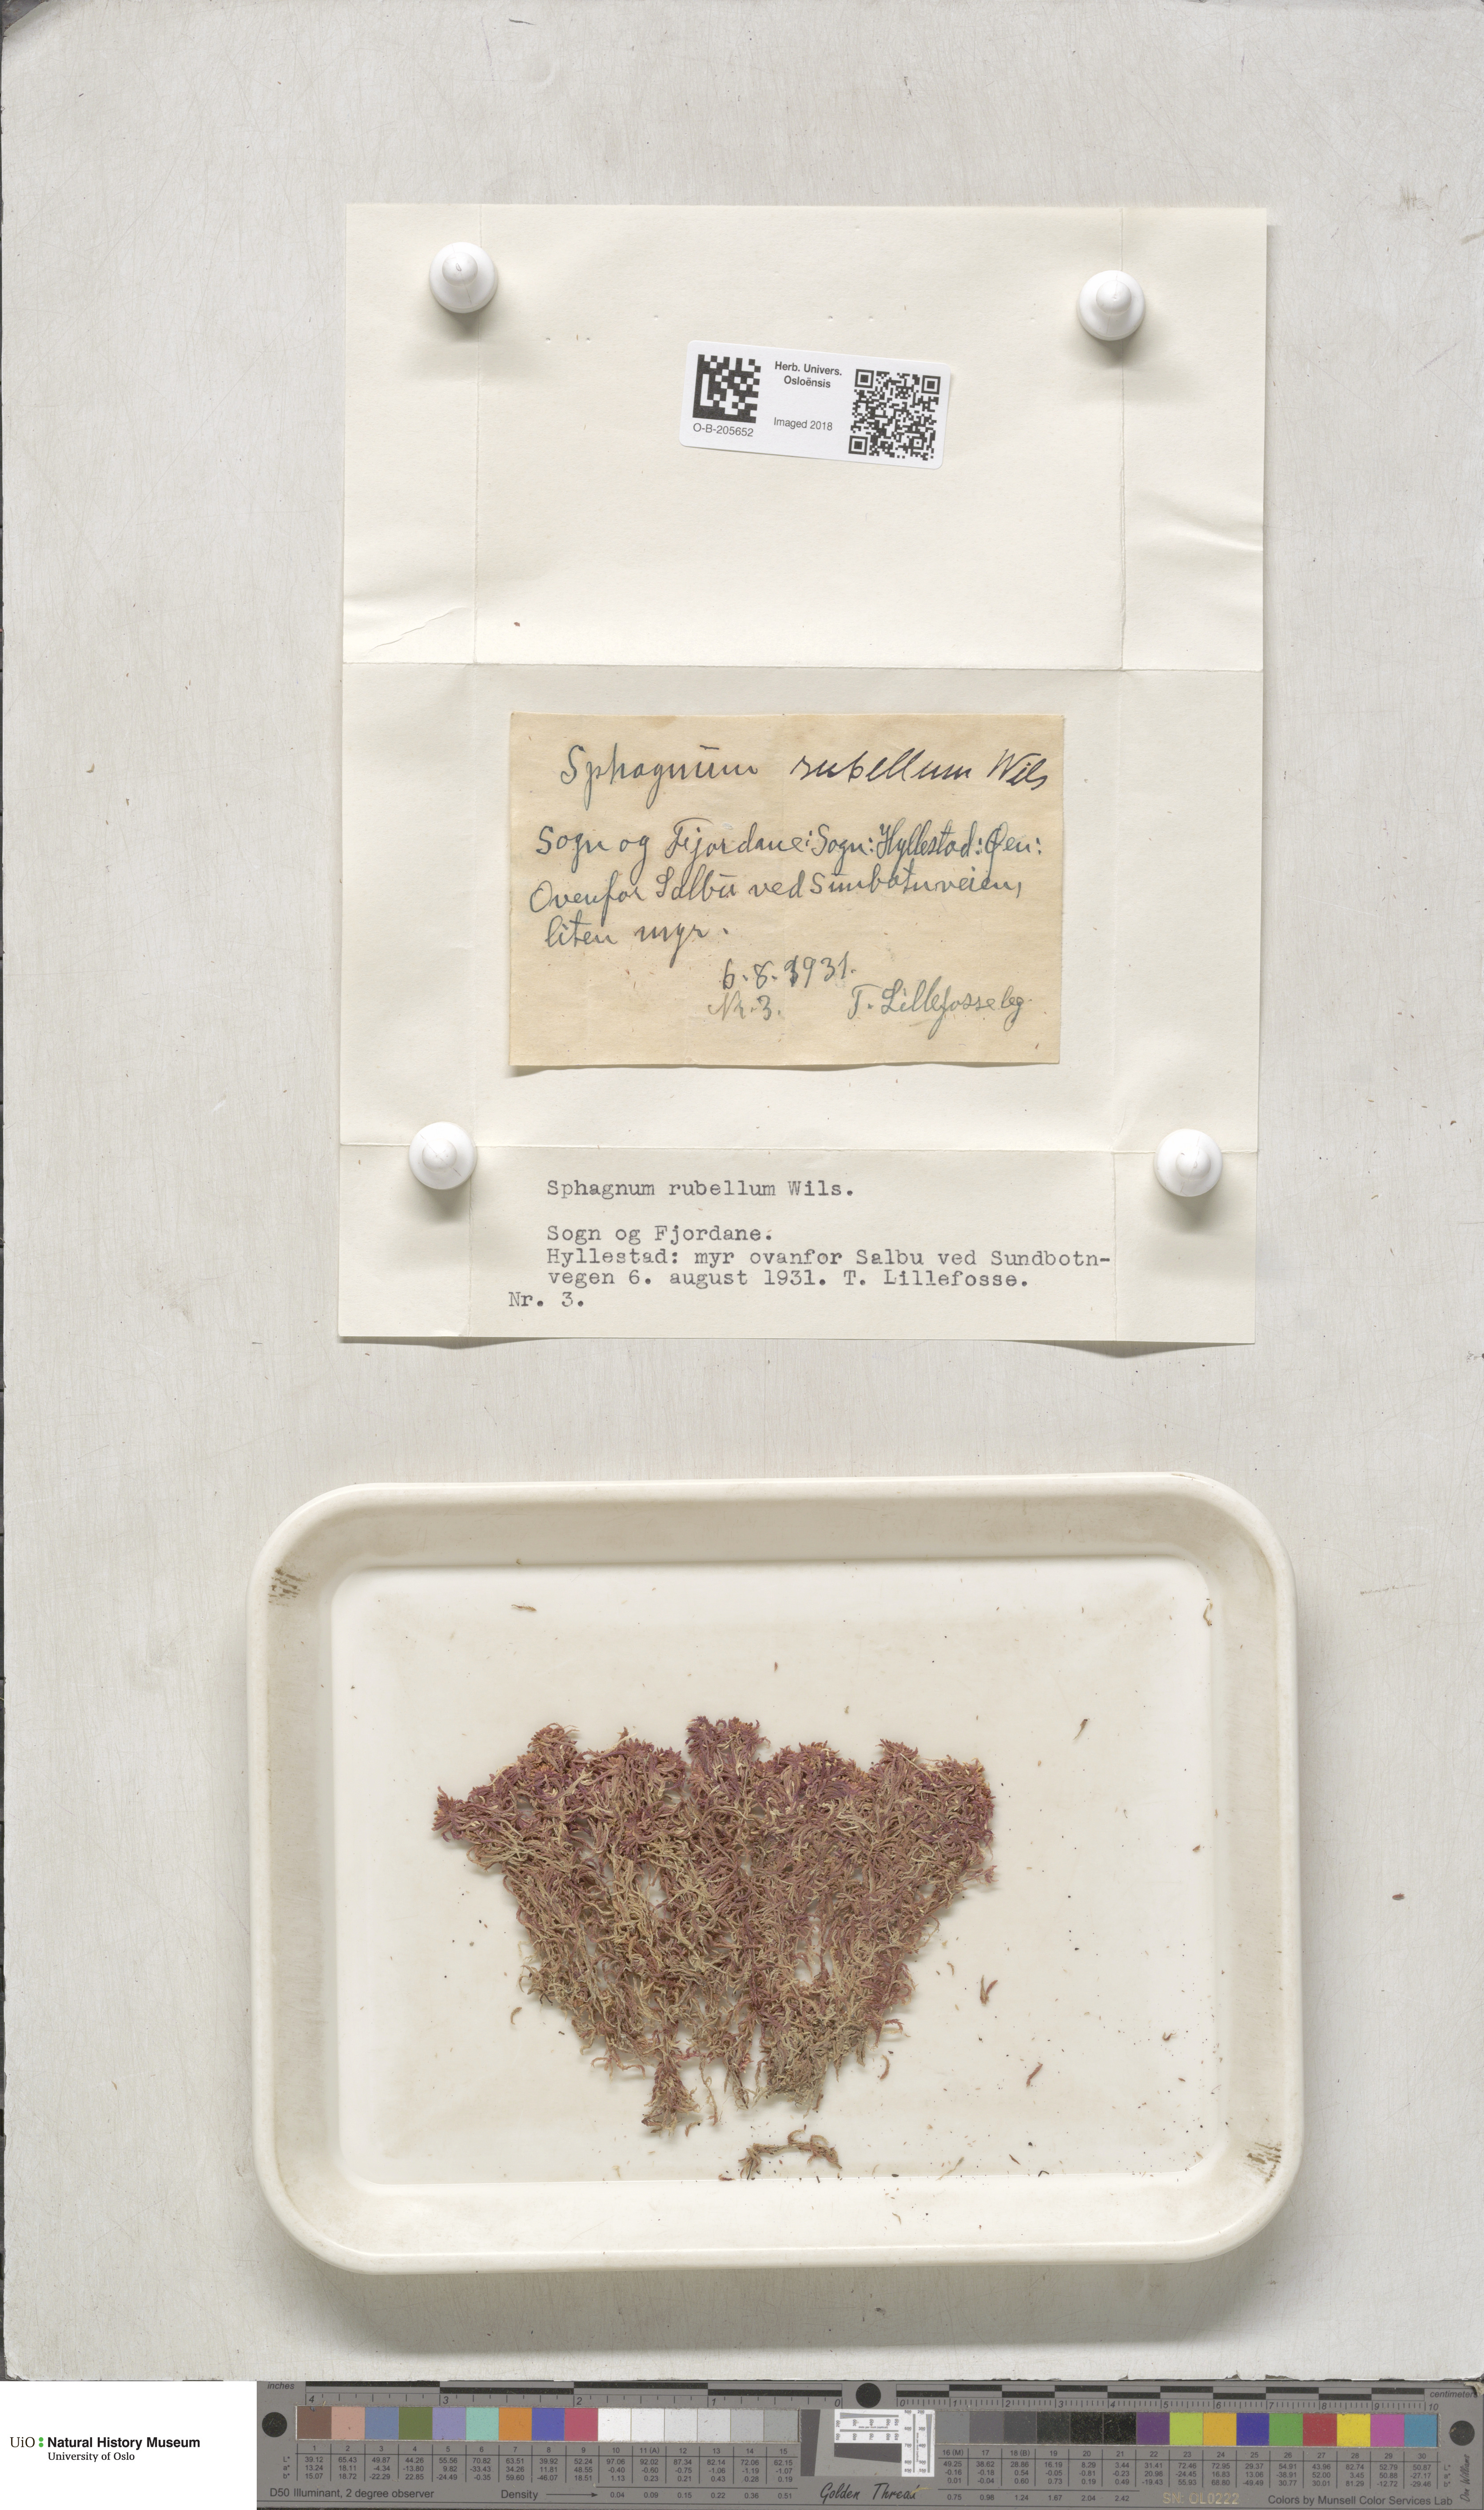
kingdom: Plantae
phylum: Bryophyta
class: Sphagnopsida
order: Sphagnales
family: Sphagnaceae
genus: Sphagnum
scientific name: Sphagnum rubellum
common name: Red peat moss
